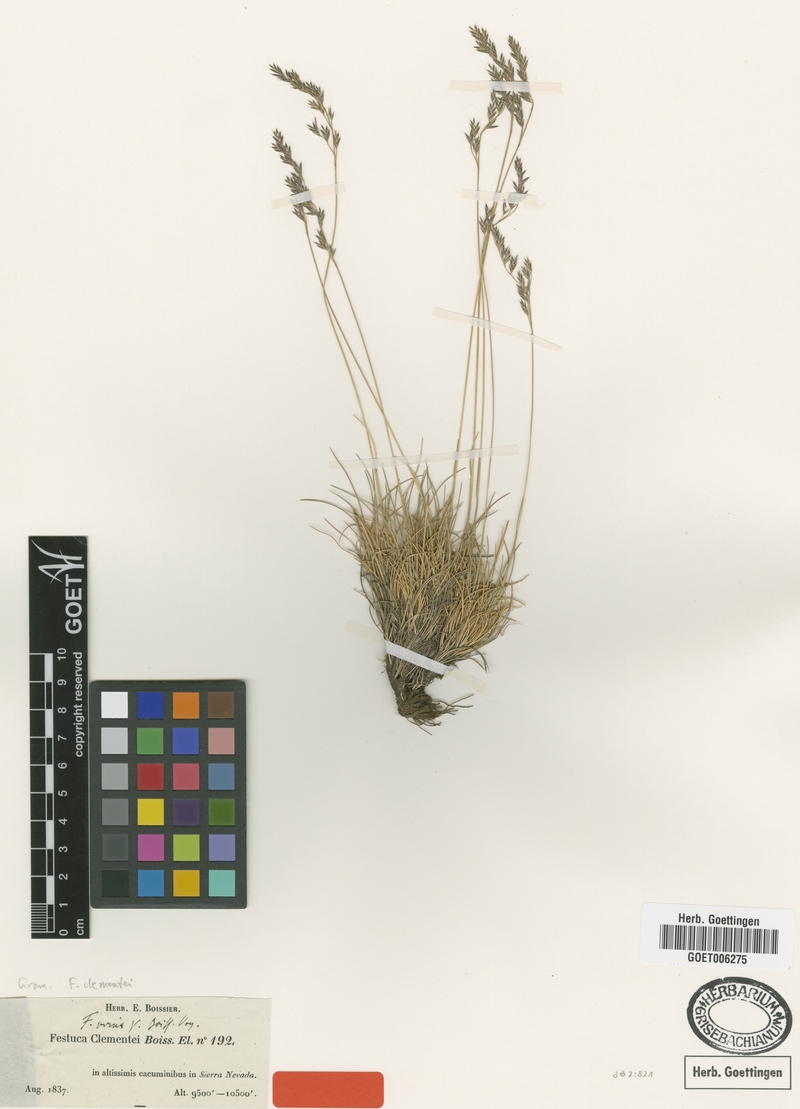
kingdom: Plantae
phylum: Tracheophyta
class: Liliopsida
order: Poales
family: Poaceae
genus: Festuca
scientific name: Festuca clementei
